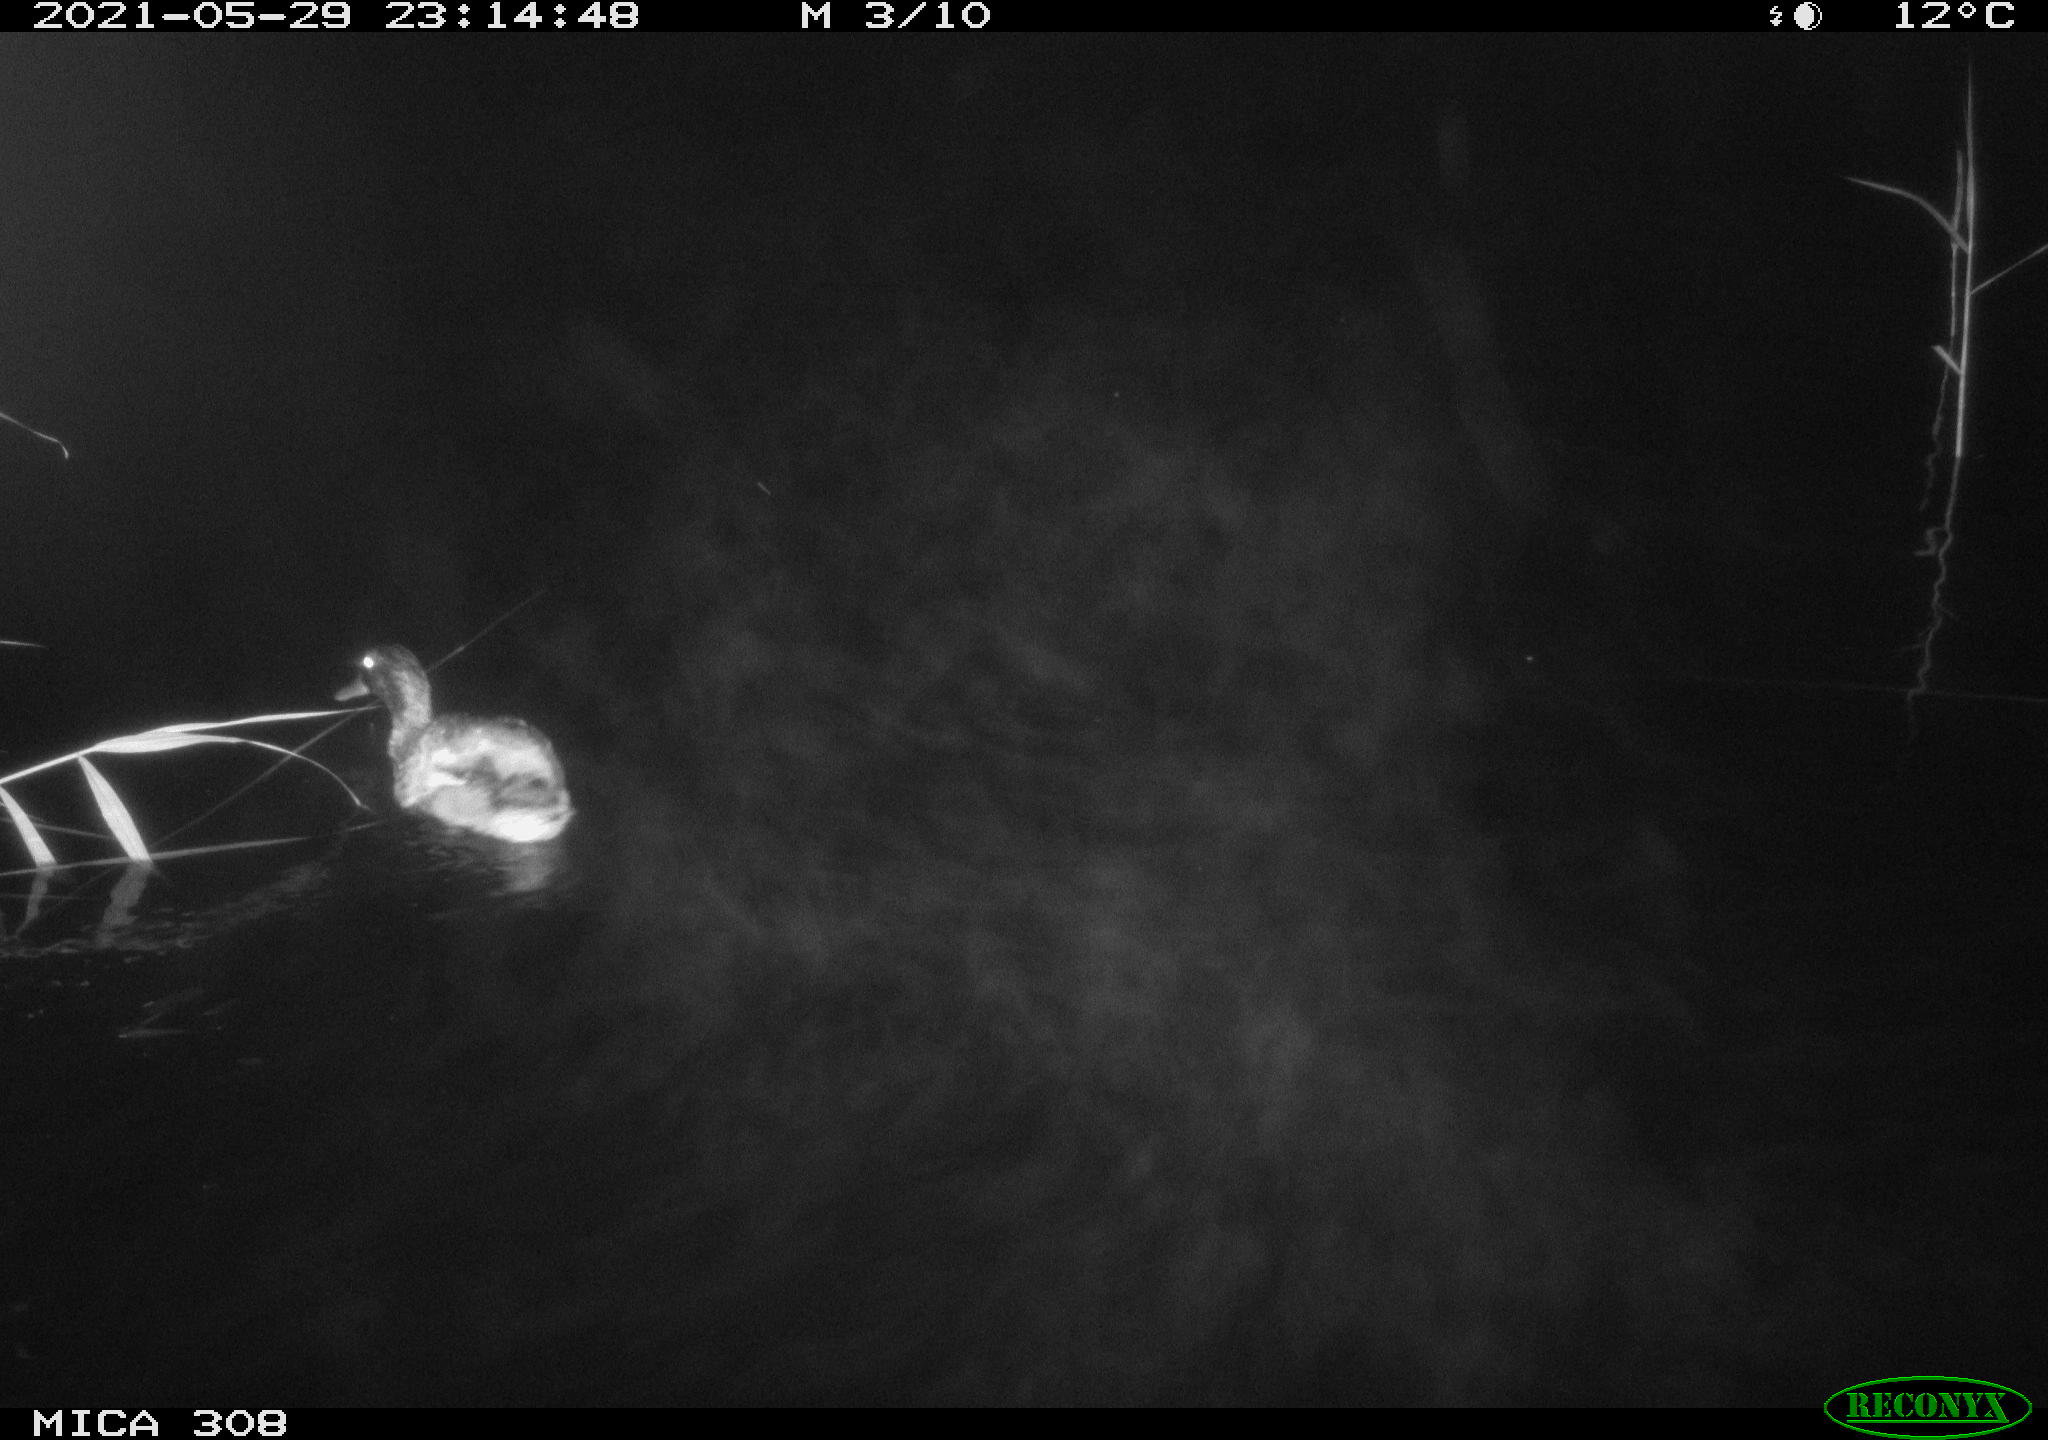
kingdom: Animalia
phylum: Chordata
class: Aves
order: Anseriformes
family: Anatidae
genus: Anas
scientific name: Anas platyrhynchos
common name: Mallard
